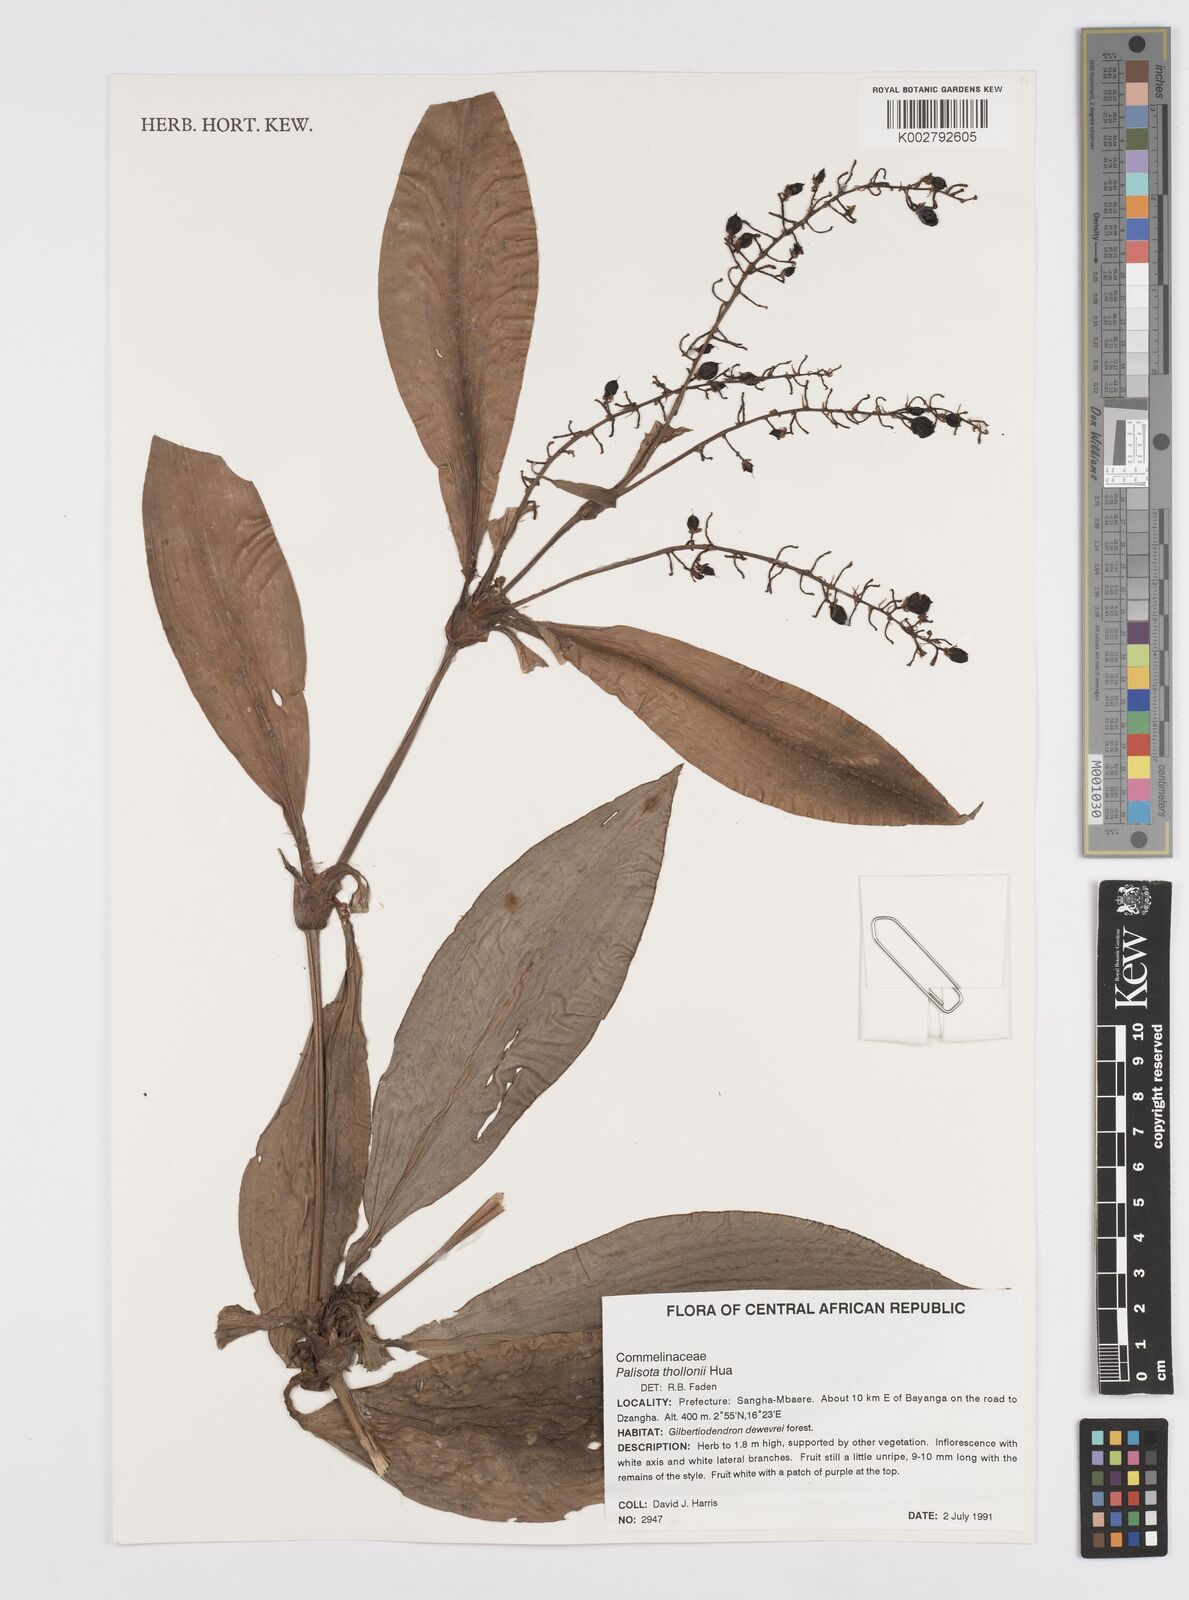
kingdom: Plantae
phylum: Tracheophyta
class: Liliopsida
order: Commelinales
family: Commelinaceae
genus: Palisota
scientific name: Palisota thollonii
